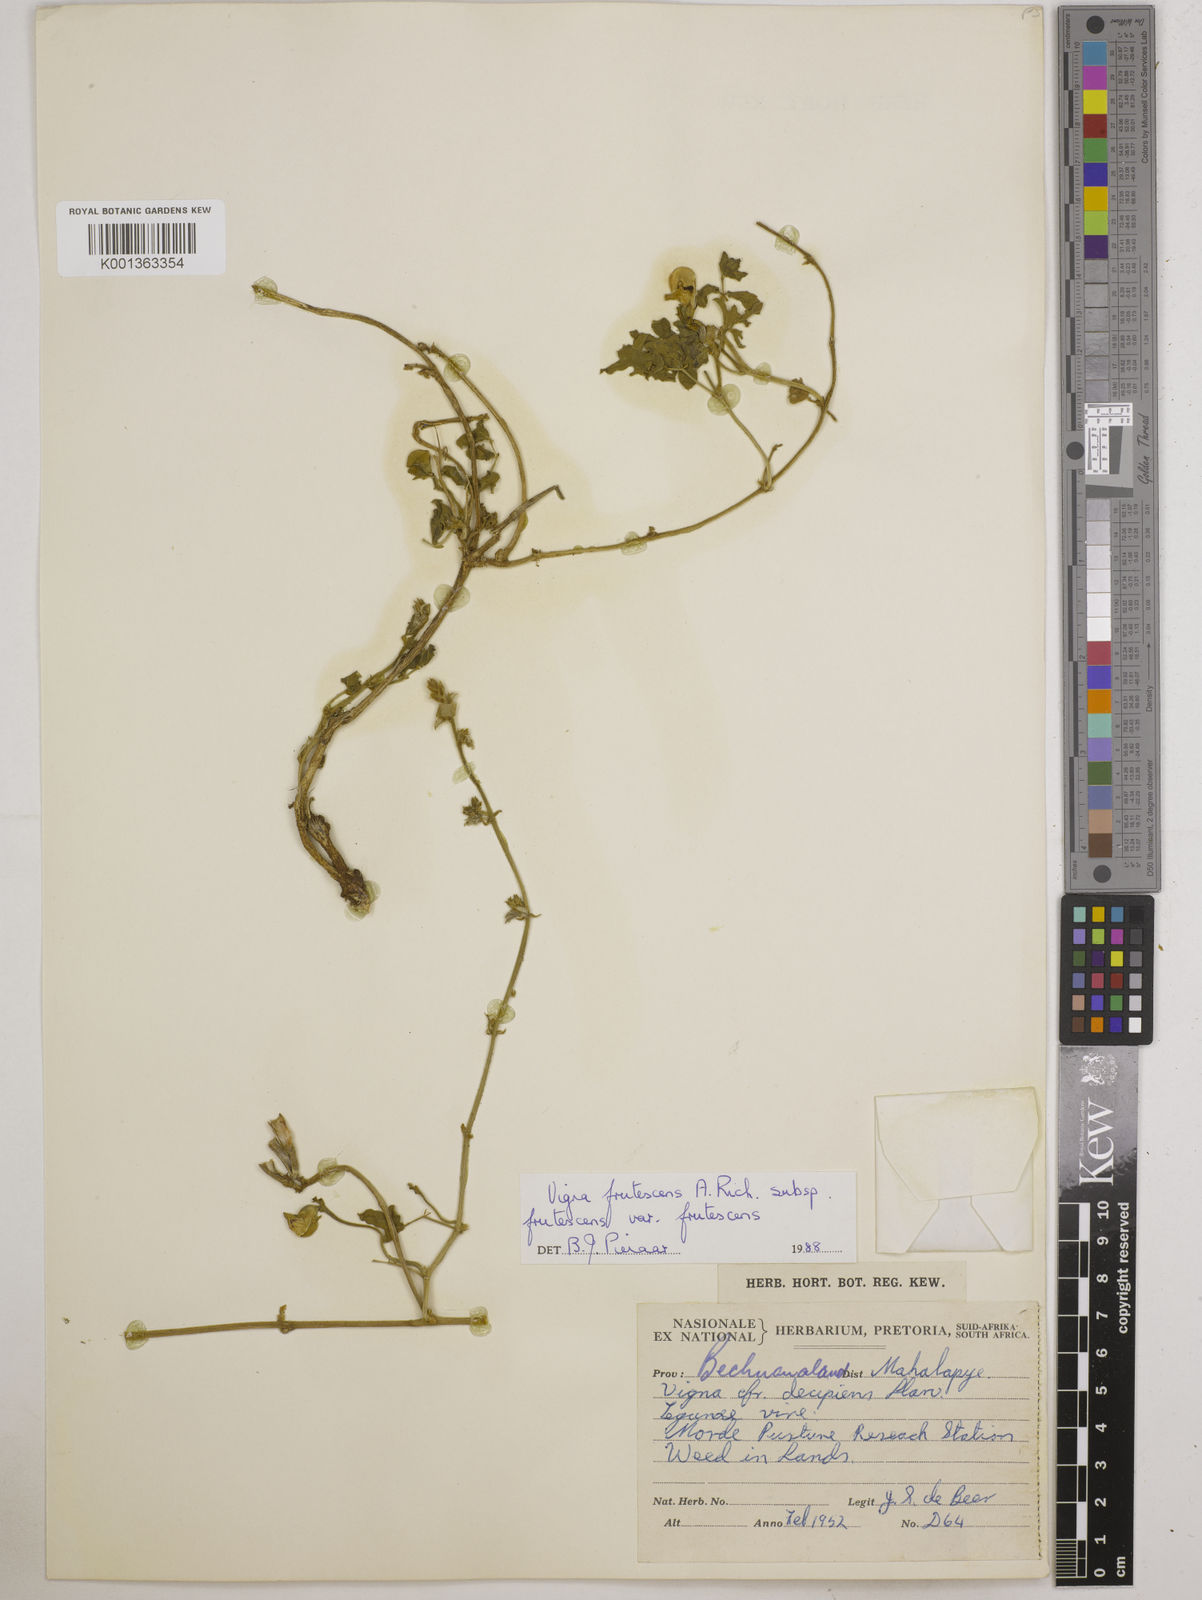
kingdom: Plantae
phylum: Tracheophyta
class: Magnoliopsida
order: Fabales
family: Fabaceae
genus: Vigna
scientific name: Vigna
